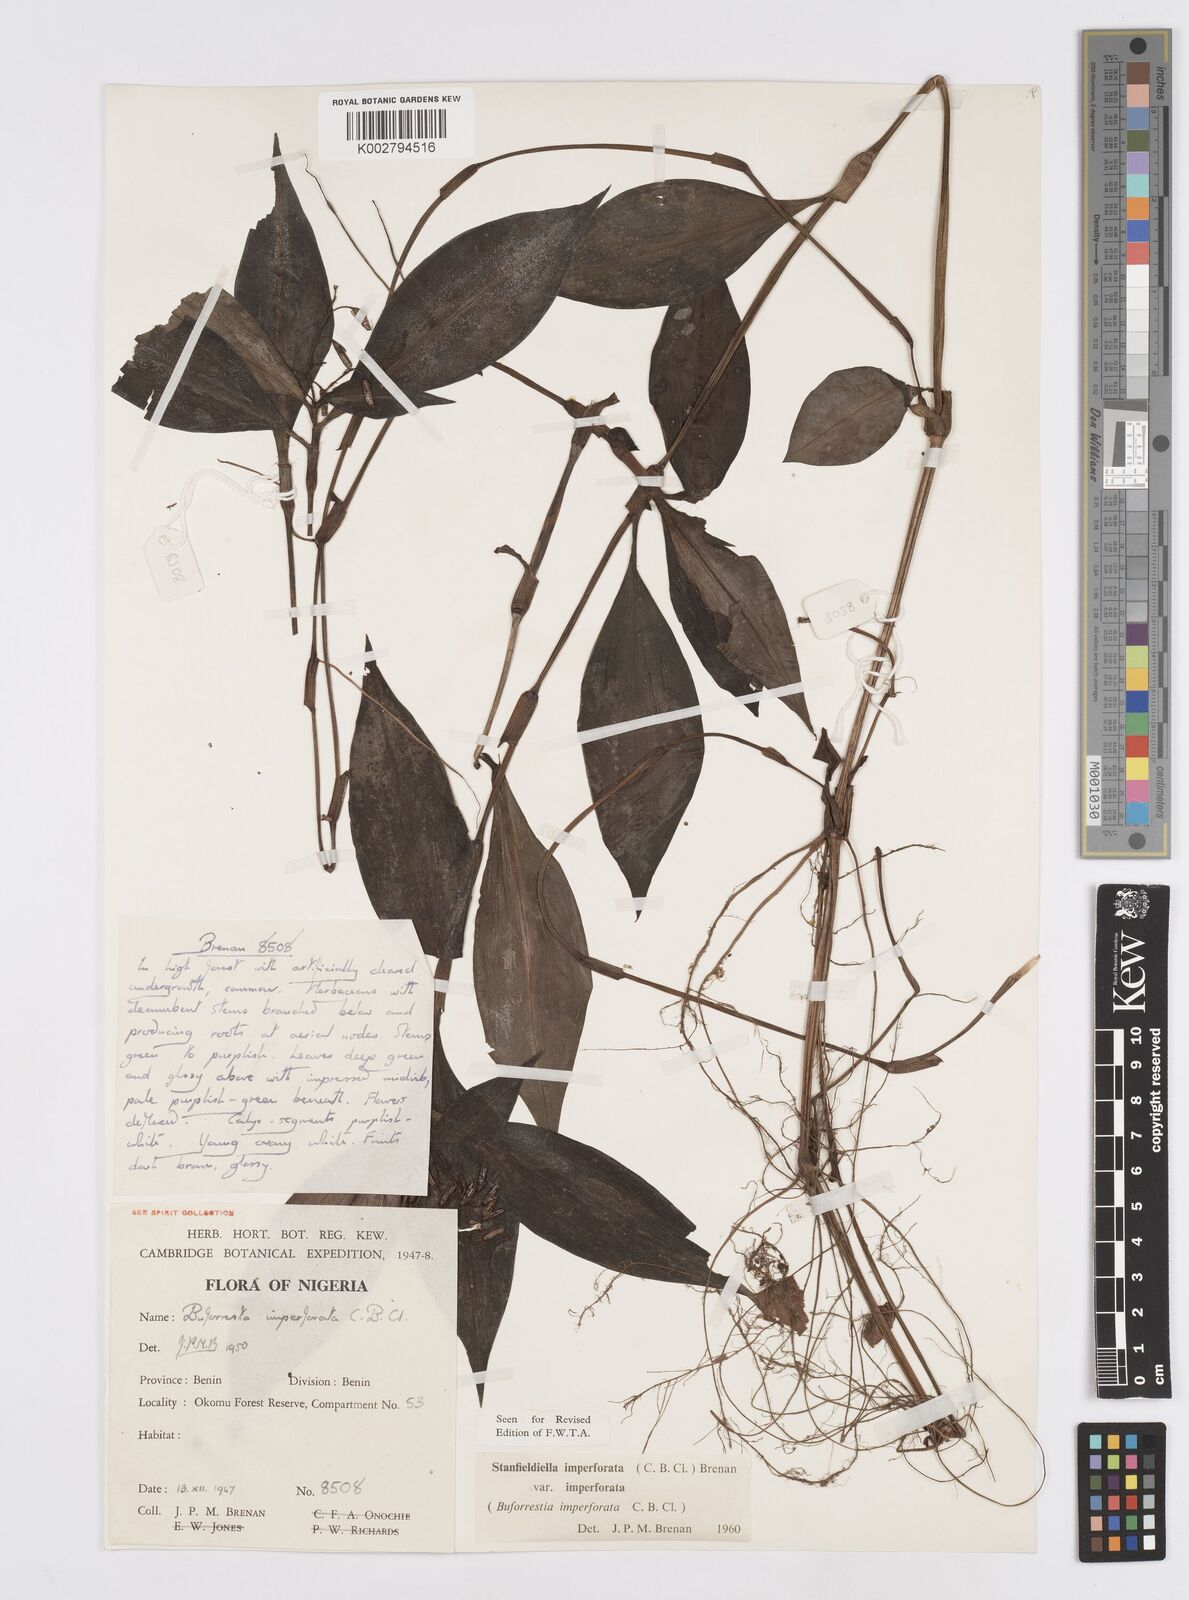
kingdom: Plantae
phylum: Tracheophyta
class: Liliopsida
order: Commelinales
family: Commelinaceae
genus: Stanfieldiella
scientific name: Stanfieldiella imperforata
